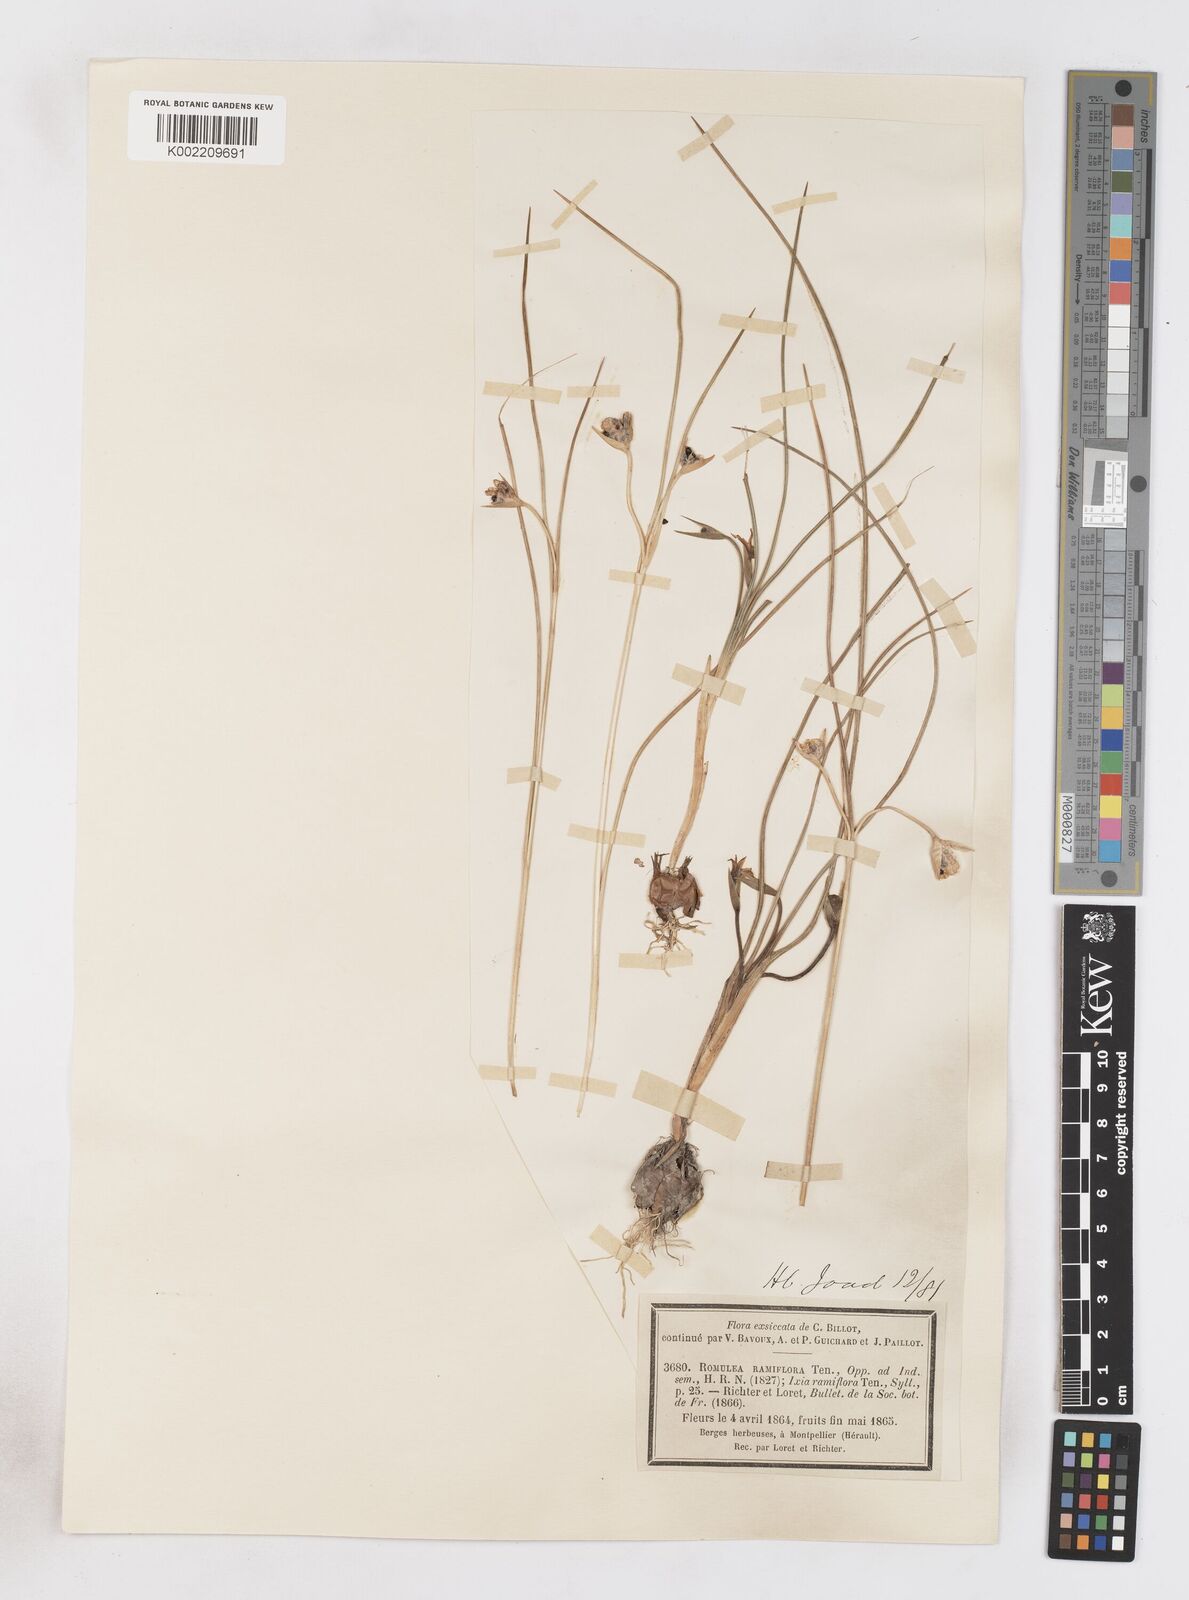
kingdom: Plantae
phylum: Tracheophyta
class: Liliopsida
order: Asparagales
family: Iridaceae
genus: Romulea
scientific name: Romulea ramiflora
